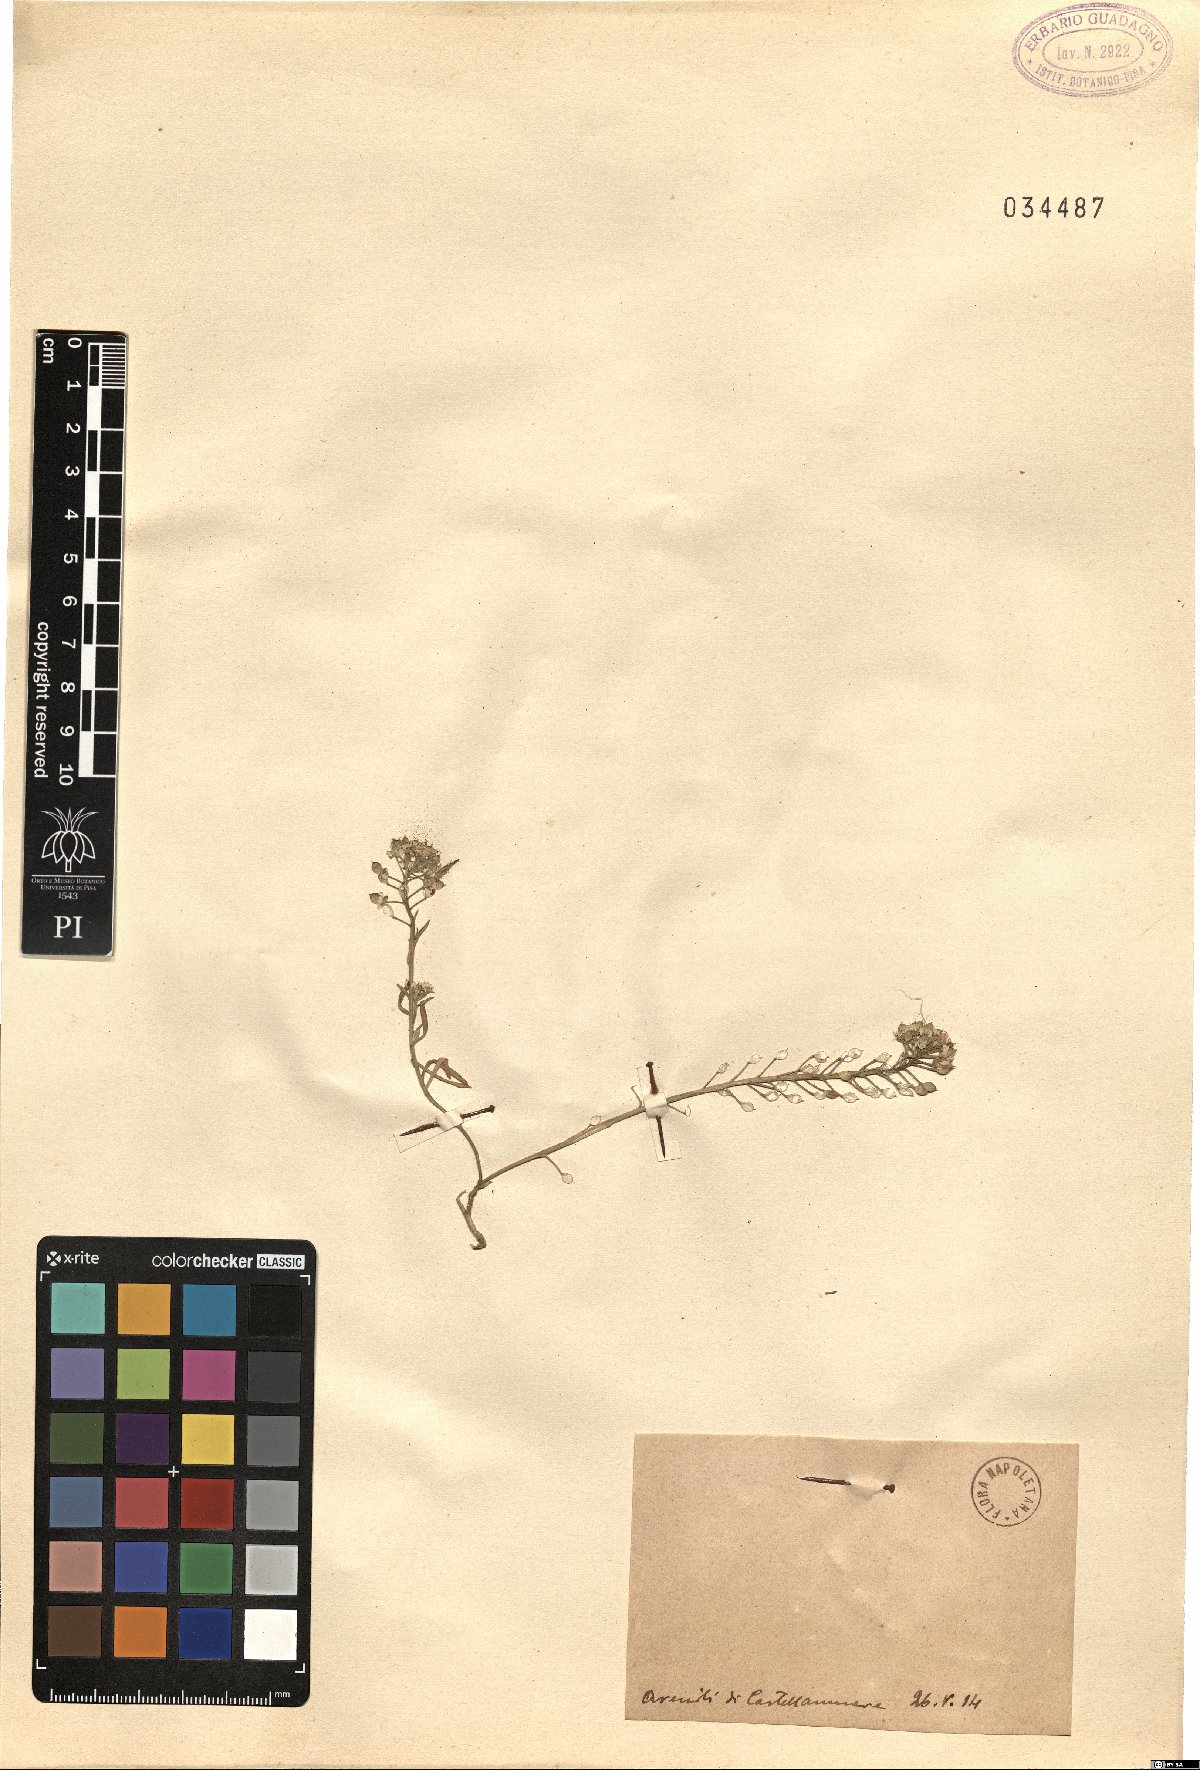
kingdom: Plantae
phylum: Tracheophyta
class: Magnoliopsida
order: Brassicales
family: Brassicaceae
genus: Alyssum
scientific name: Alyssum
